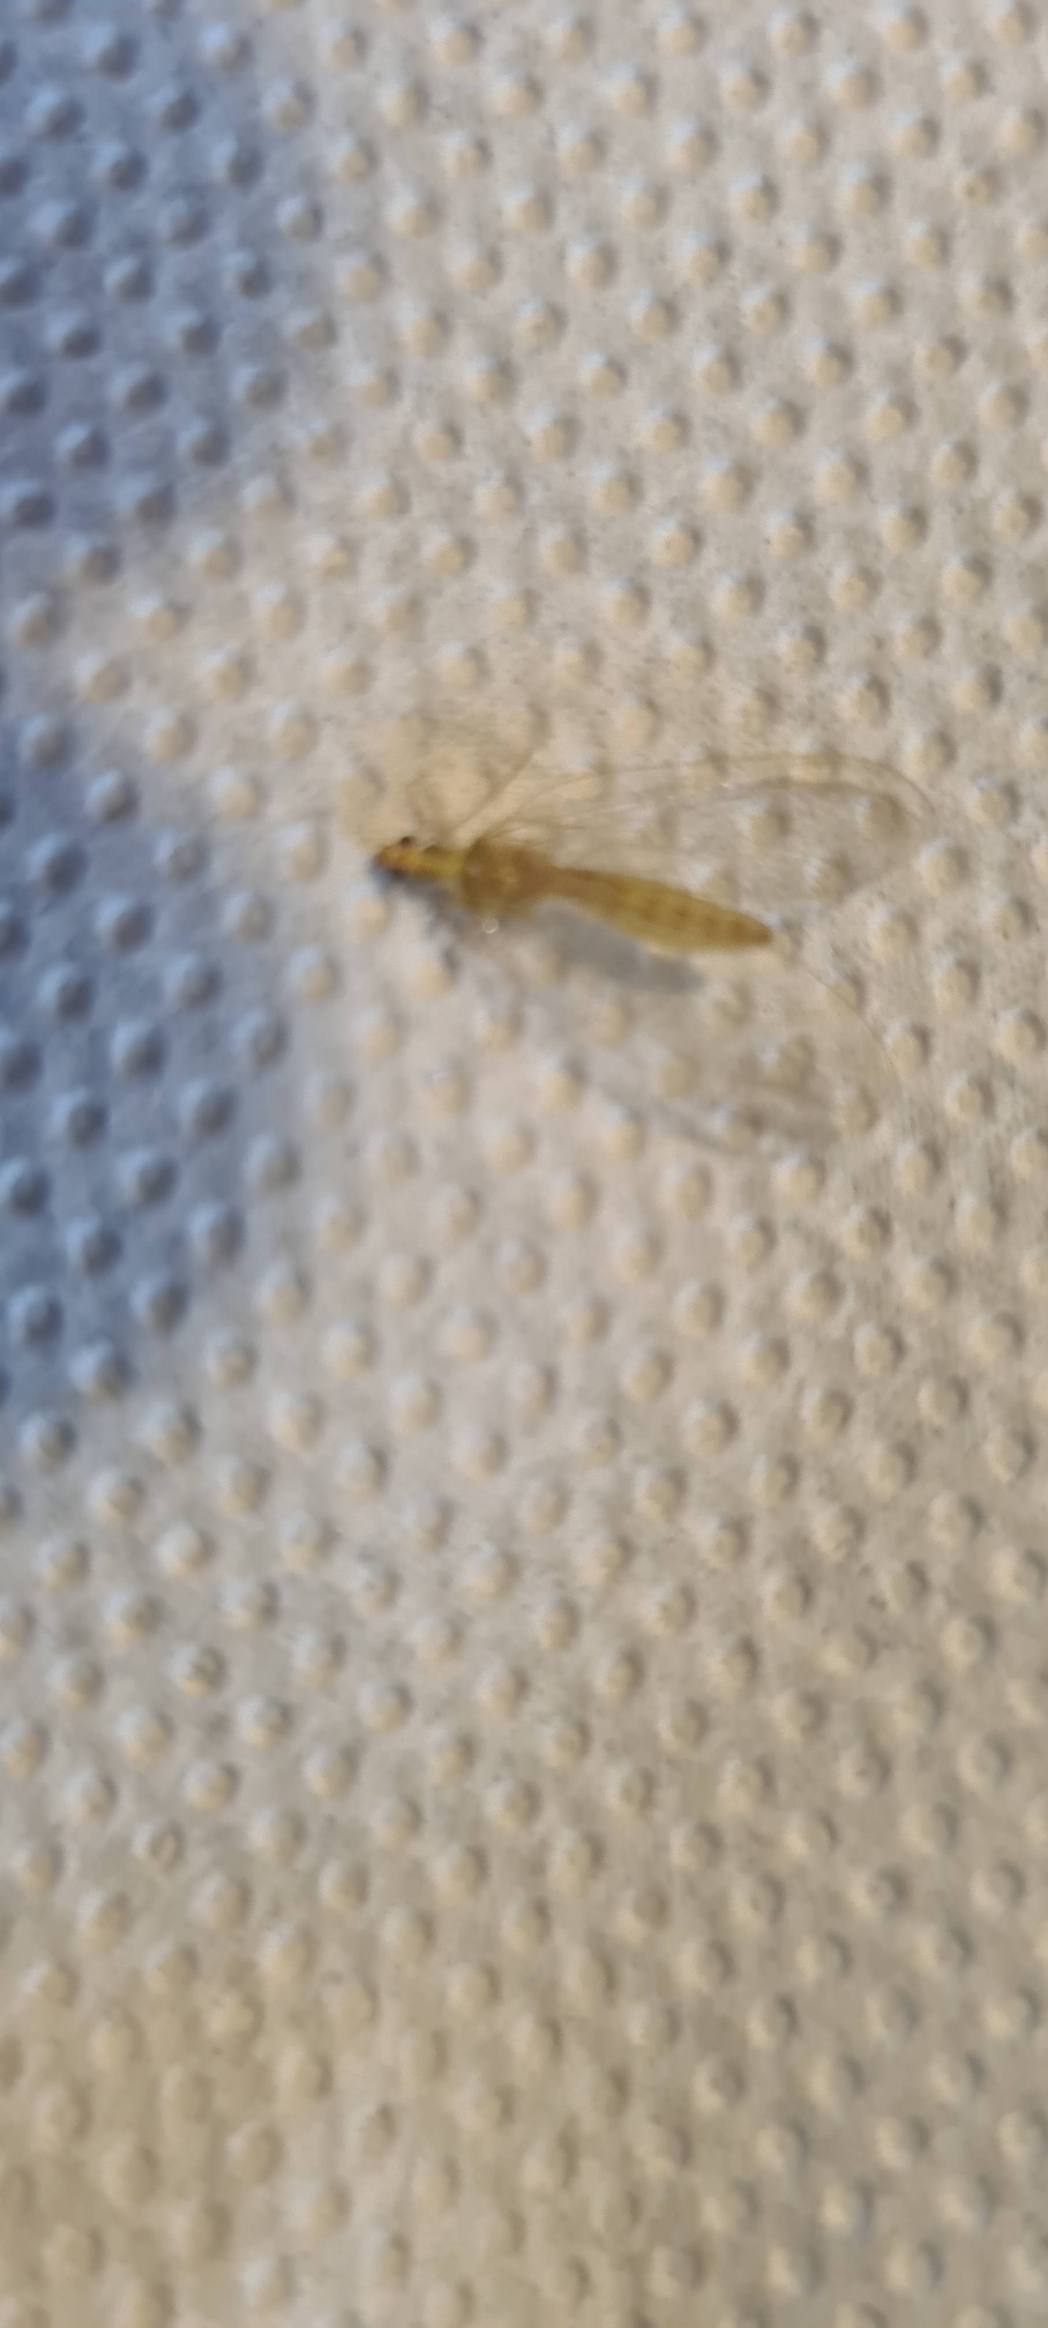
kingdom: Animalia
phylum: Arthropoda
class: Insecta
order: Neuroptera
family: Chrysopidae
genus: Chrysoperla
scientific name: Chrysoperla carnea
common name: Almindelig guldøje
